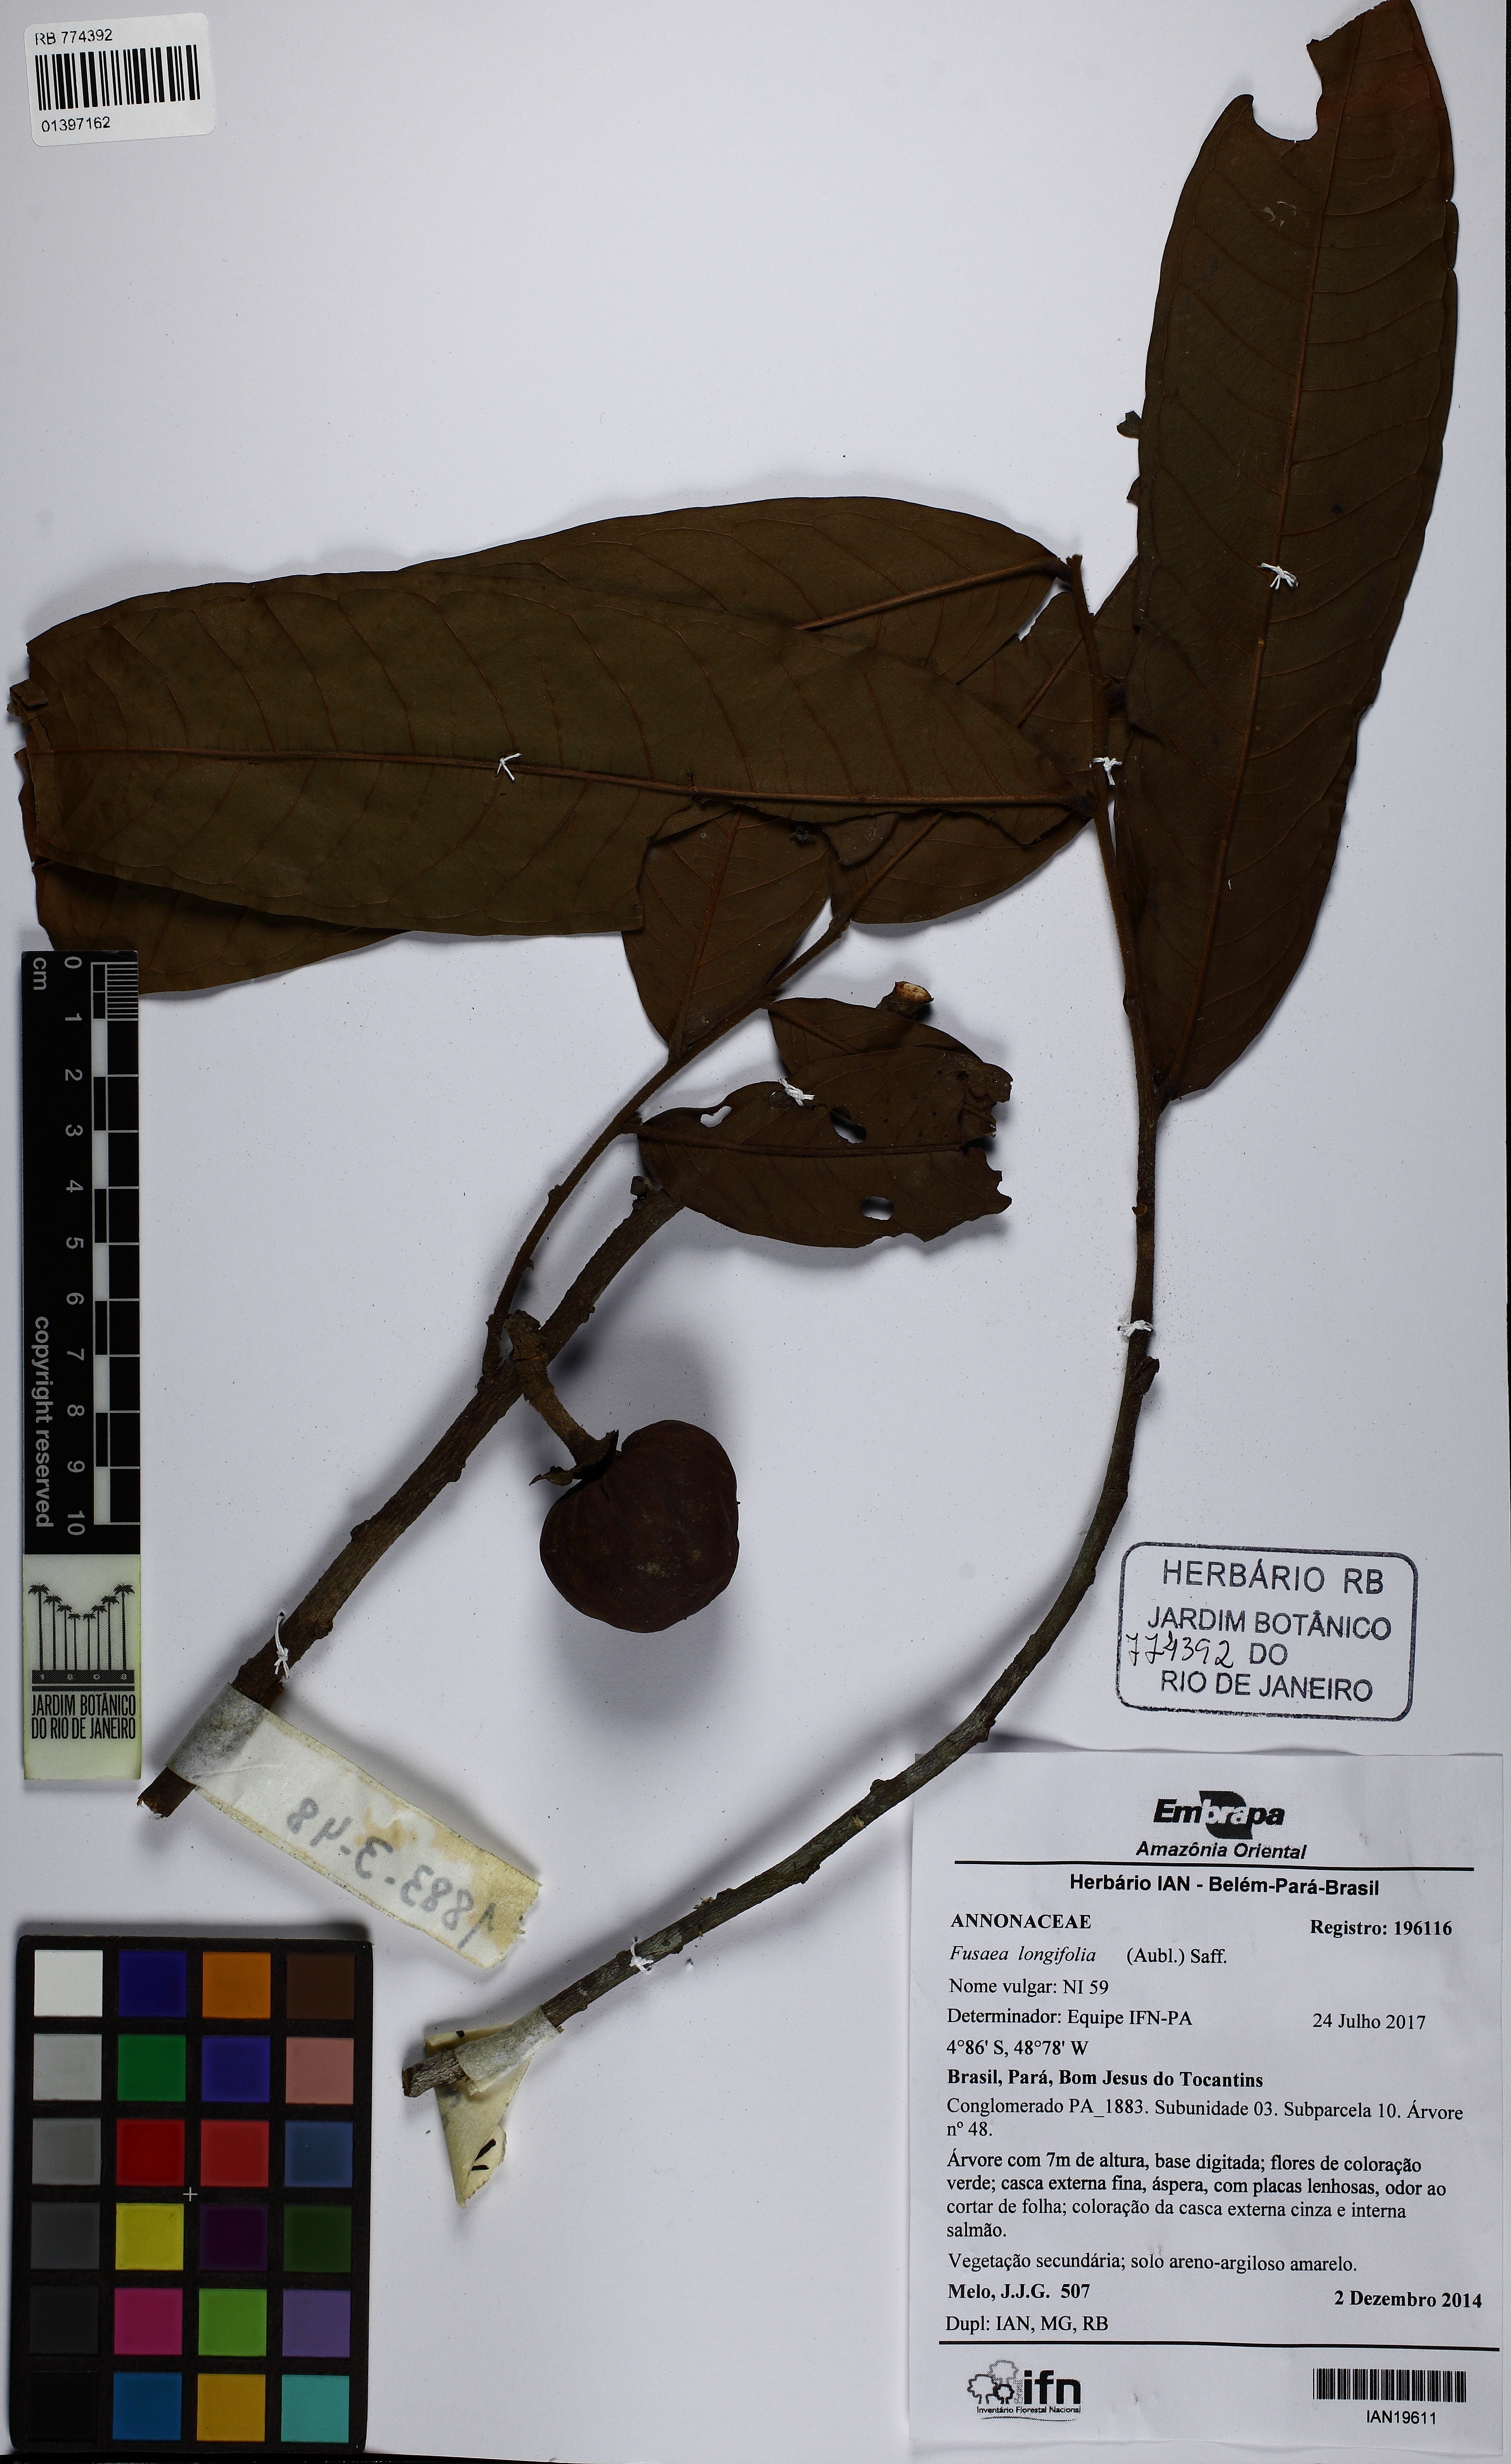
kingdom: Plantae
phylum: Tracheophyta
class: Magnoliopsida
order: Magnoliales
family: Annonaceae
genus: Fusaea
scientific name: Fusaea longifolia
